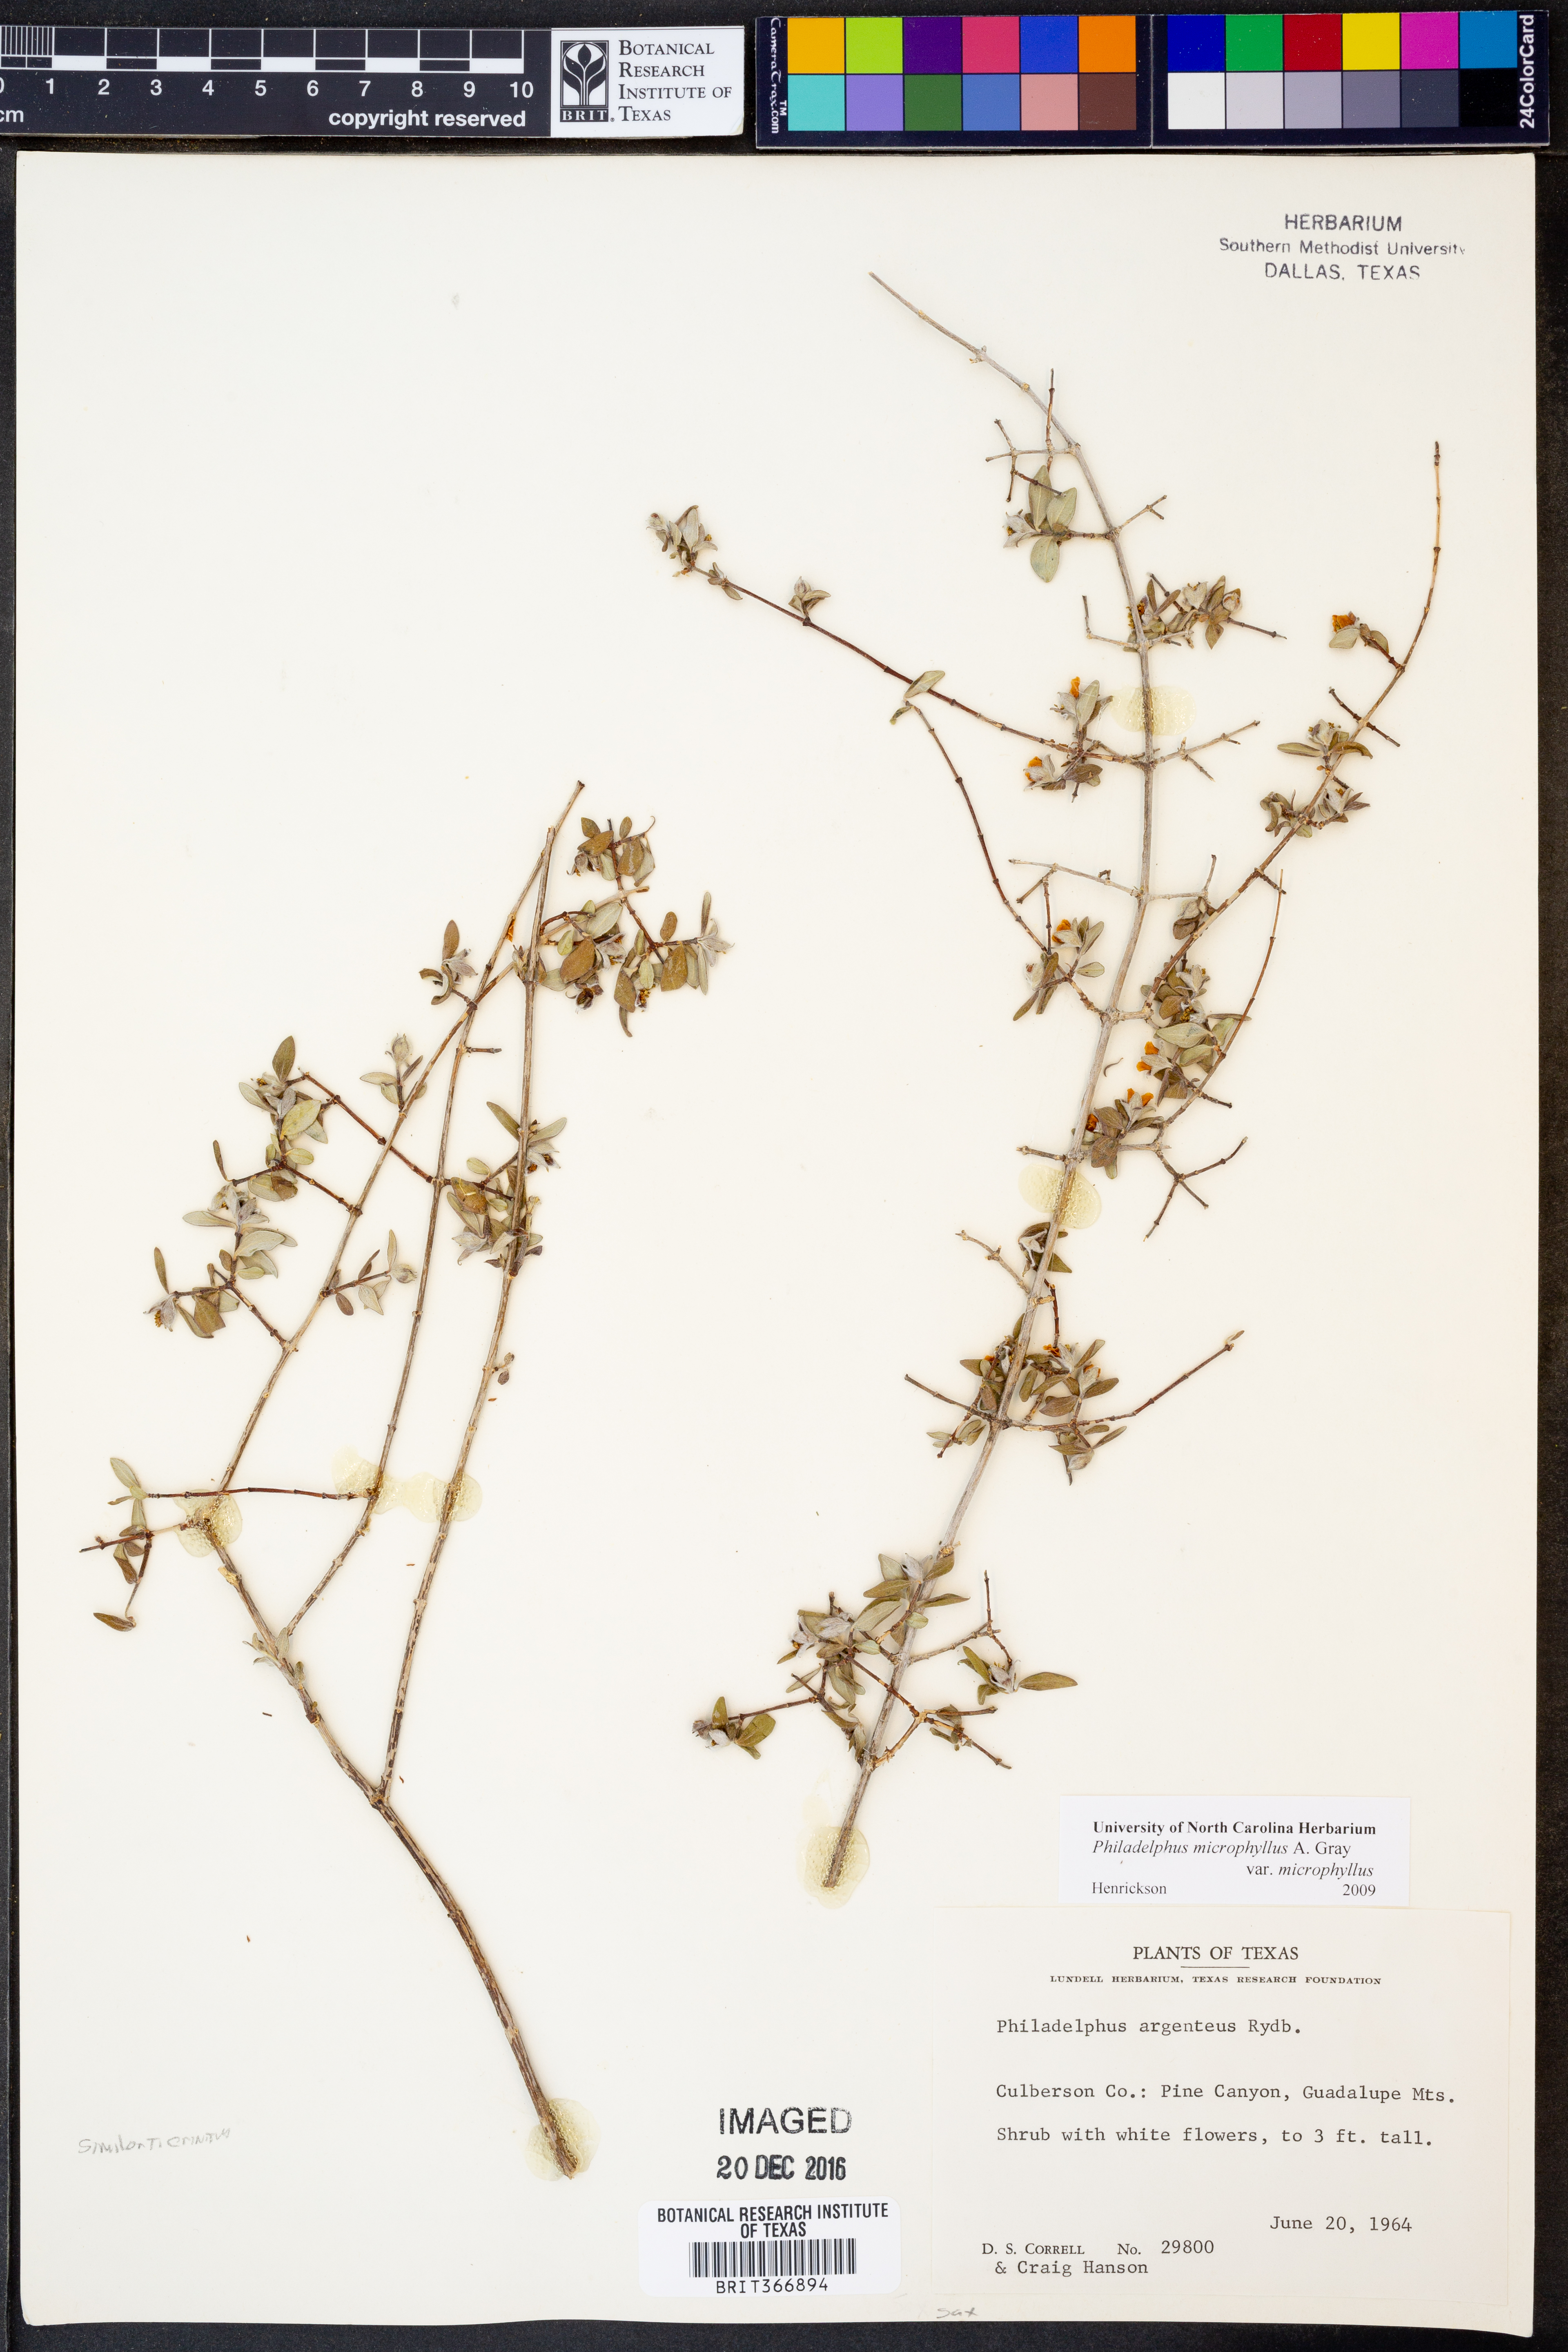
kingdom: Plantae
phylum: Tracheophyta
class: Magnoliopsida
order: Cornales
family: Hydrangeaceae
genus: Philadelphus
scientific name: Philadelphus microphyllus
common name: Desert mock orange
